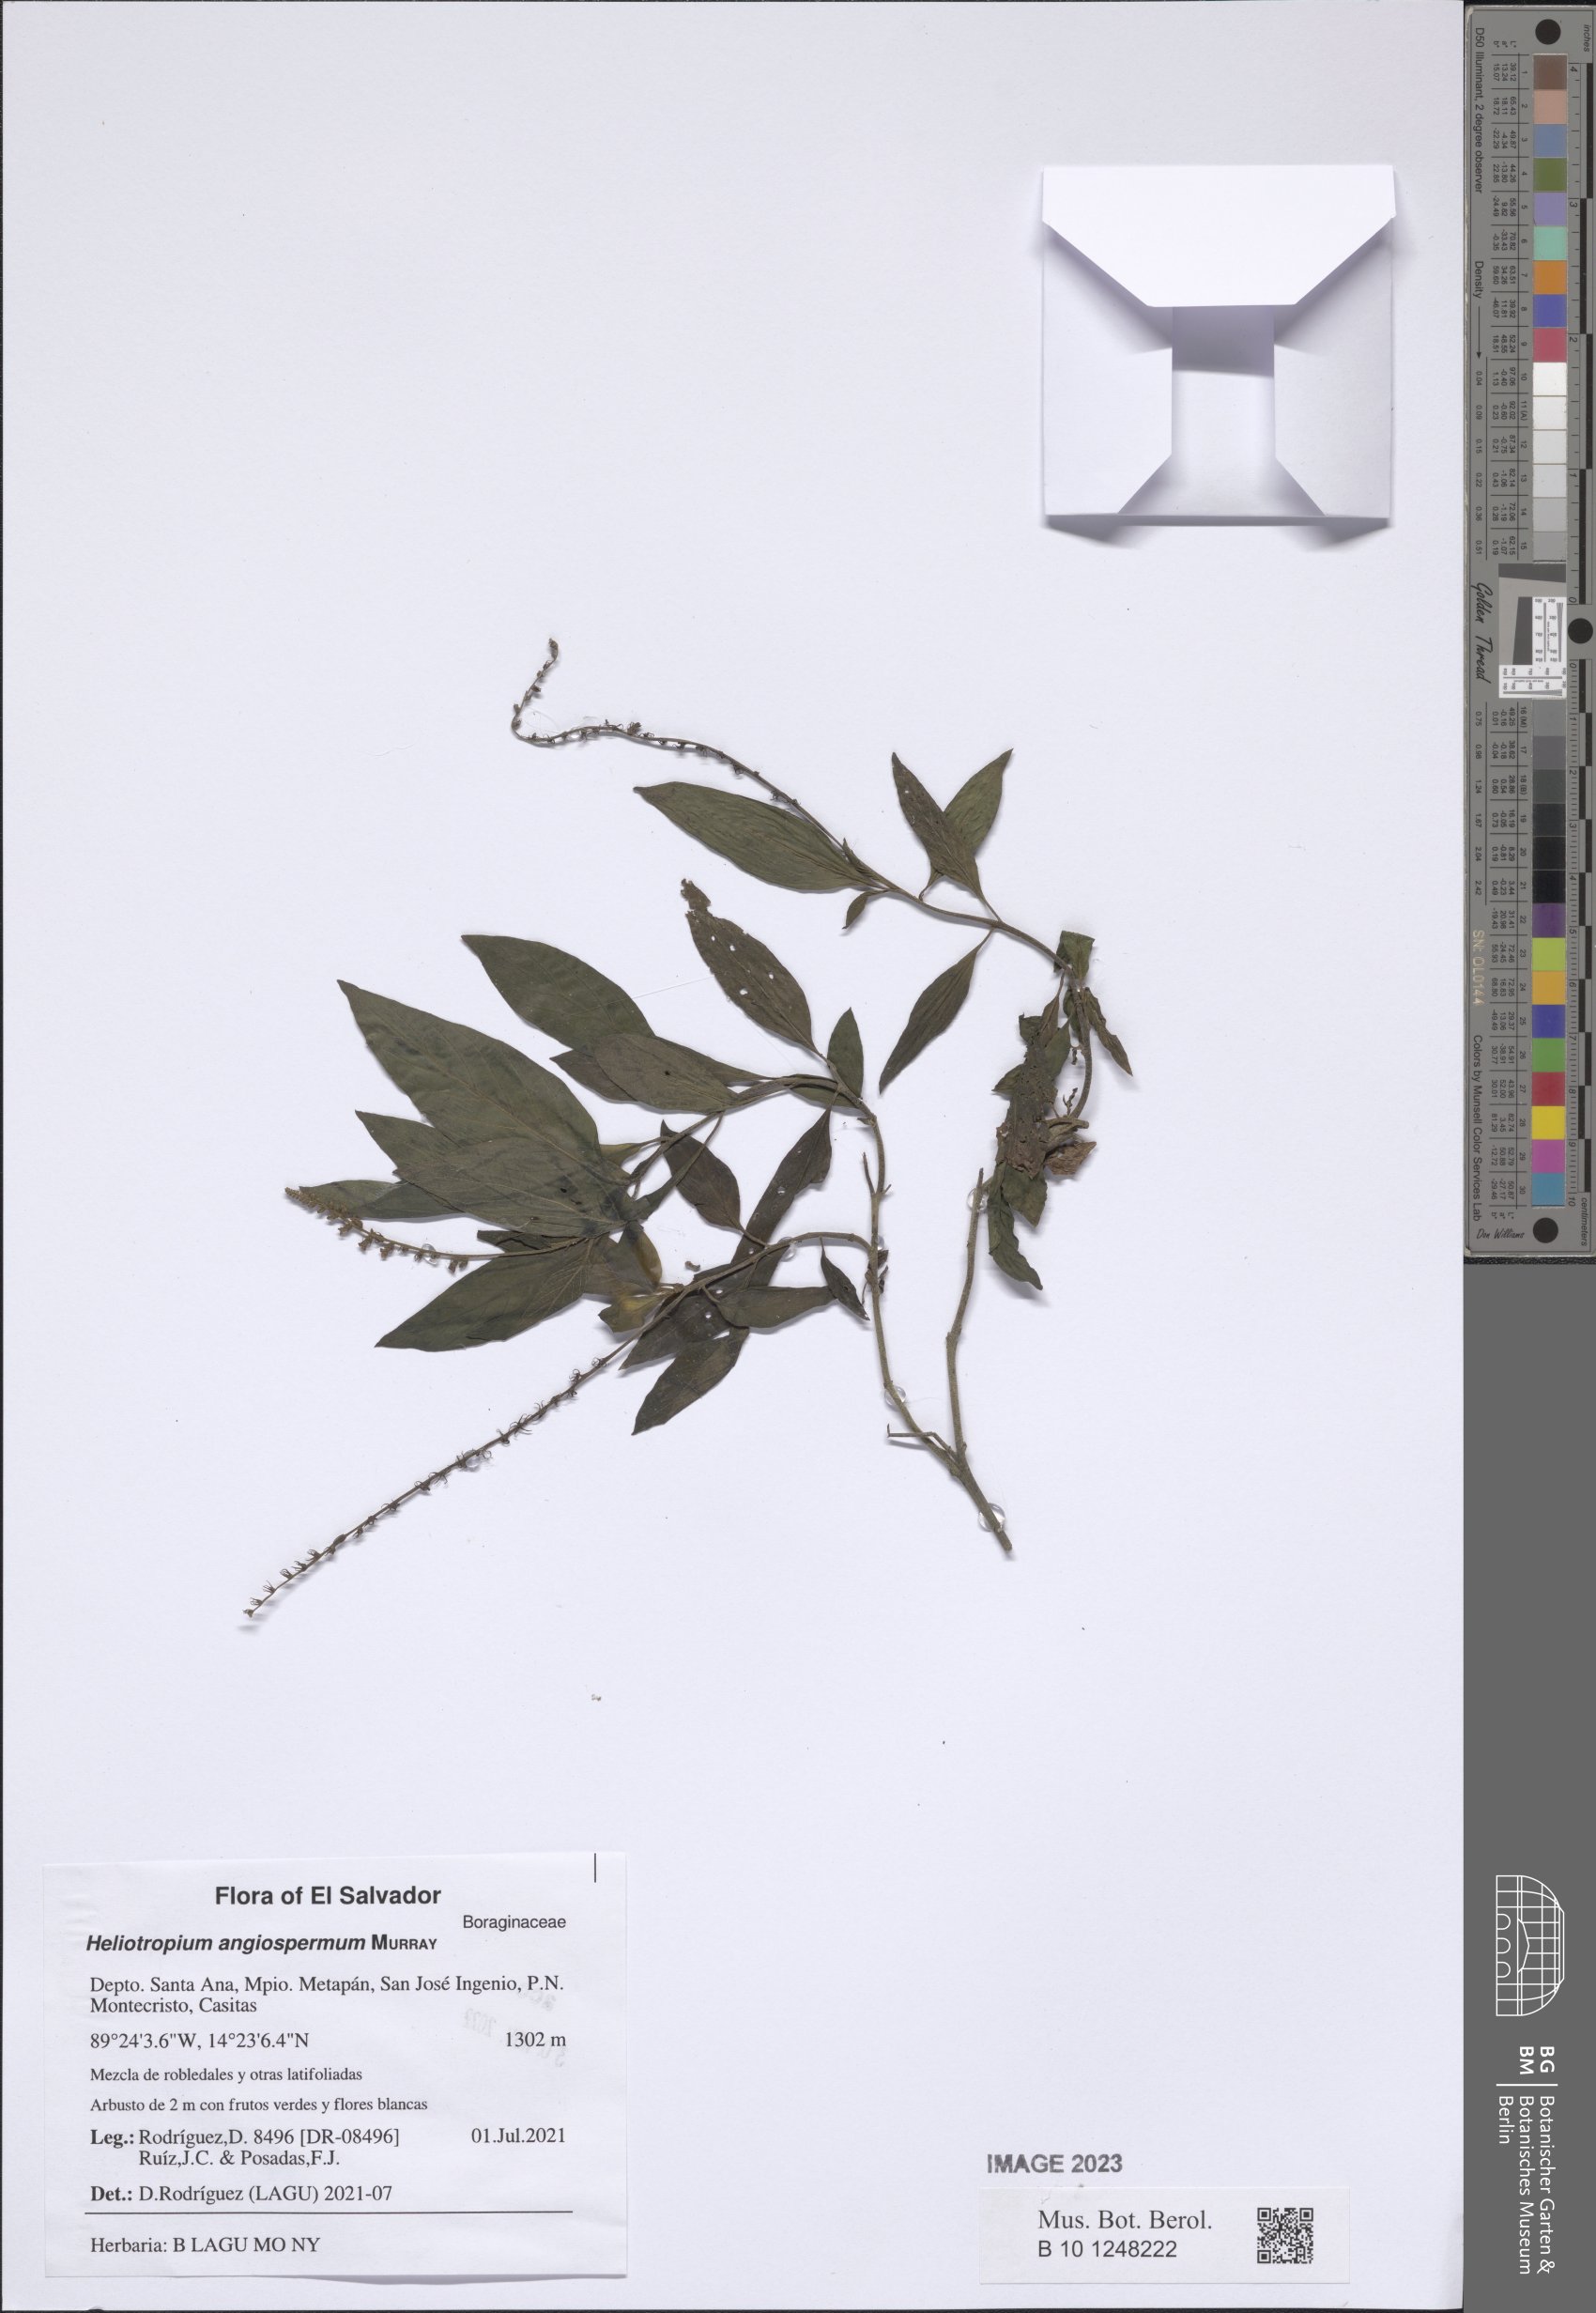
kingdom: Plantae
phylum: Tracheophyta
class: Magnoliopsida
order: Boraginales
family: Heliotropiaceae
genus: Heliotropium
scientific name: Heliotropium angiospermum
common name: Eye bright
